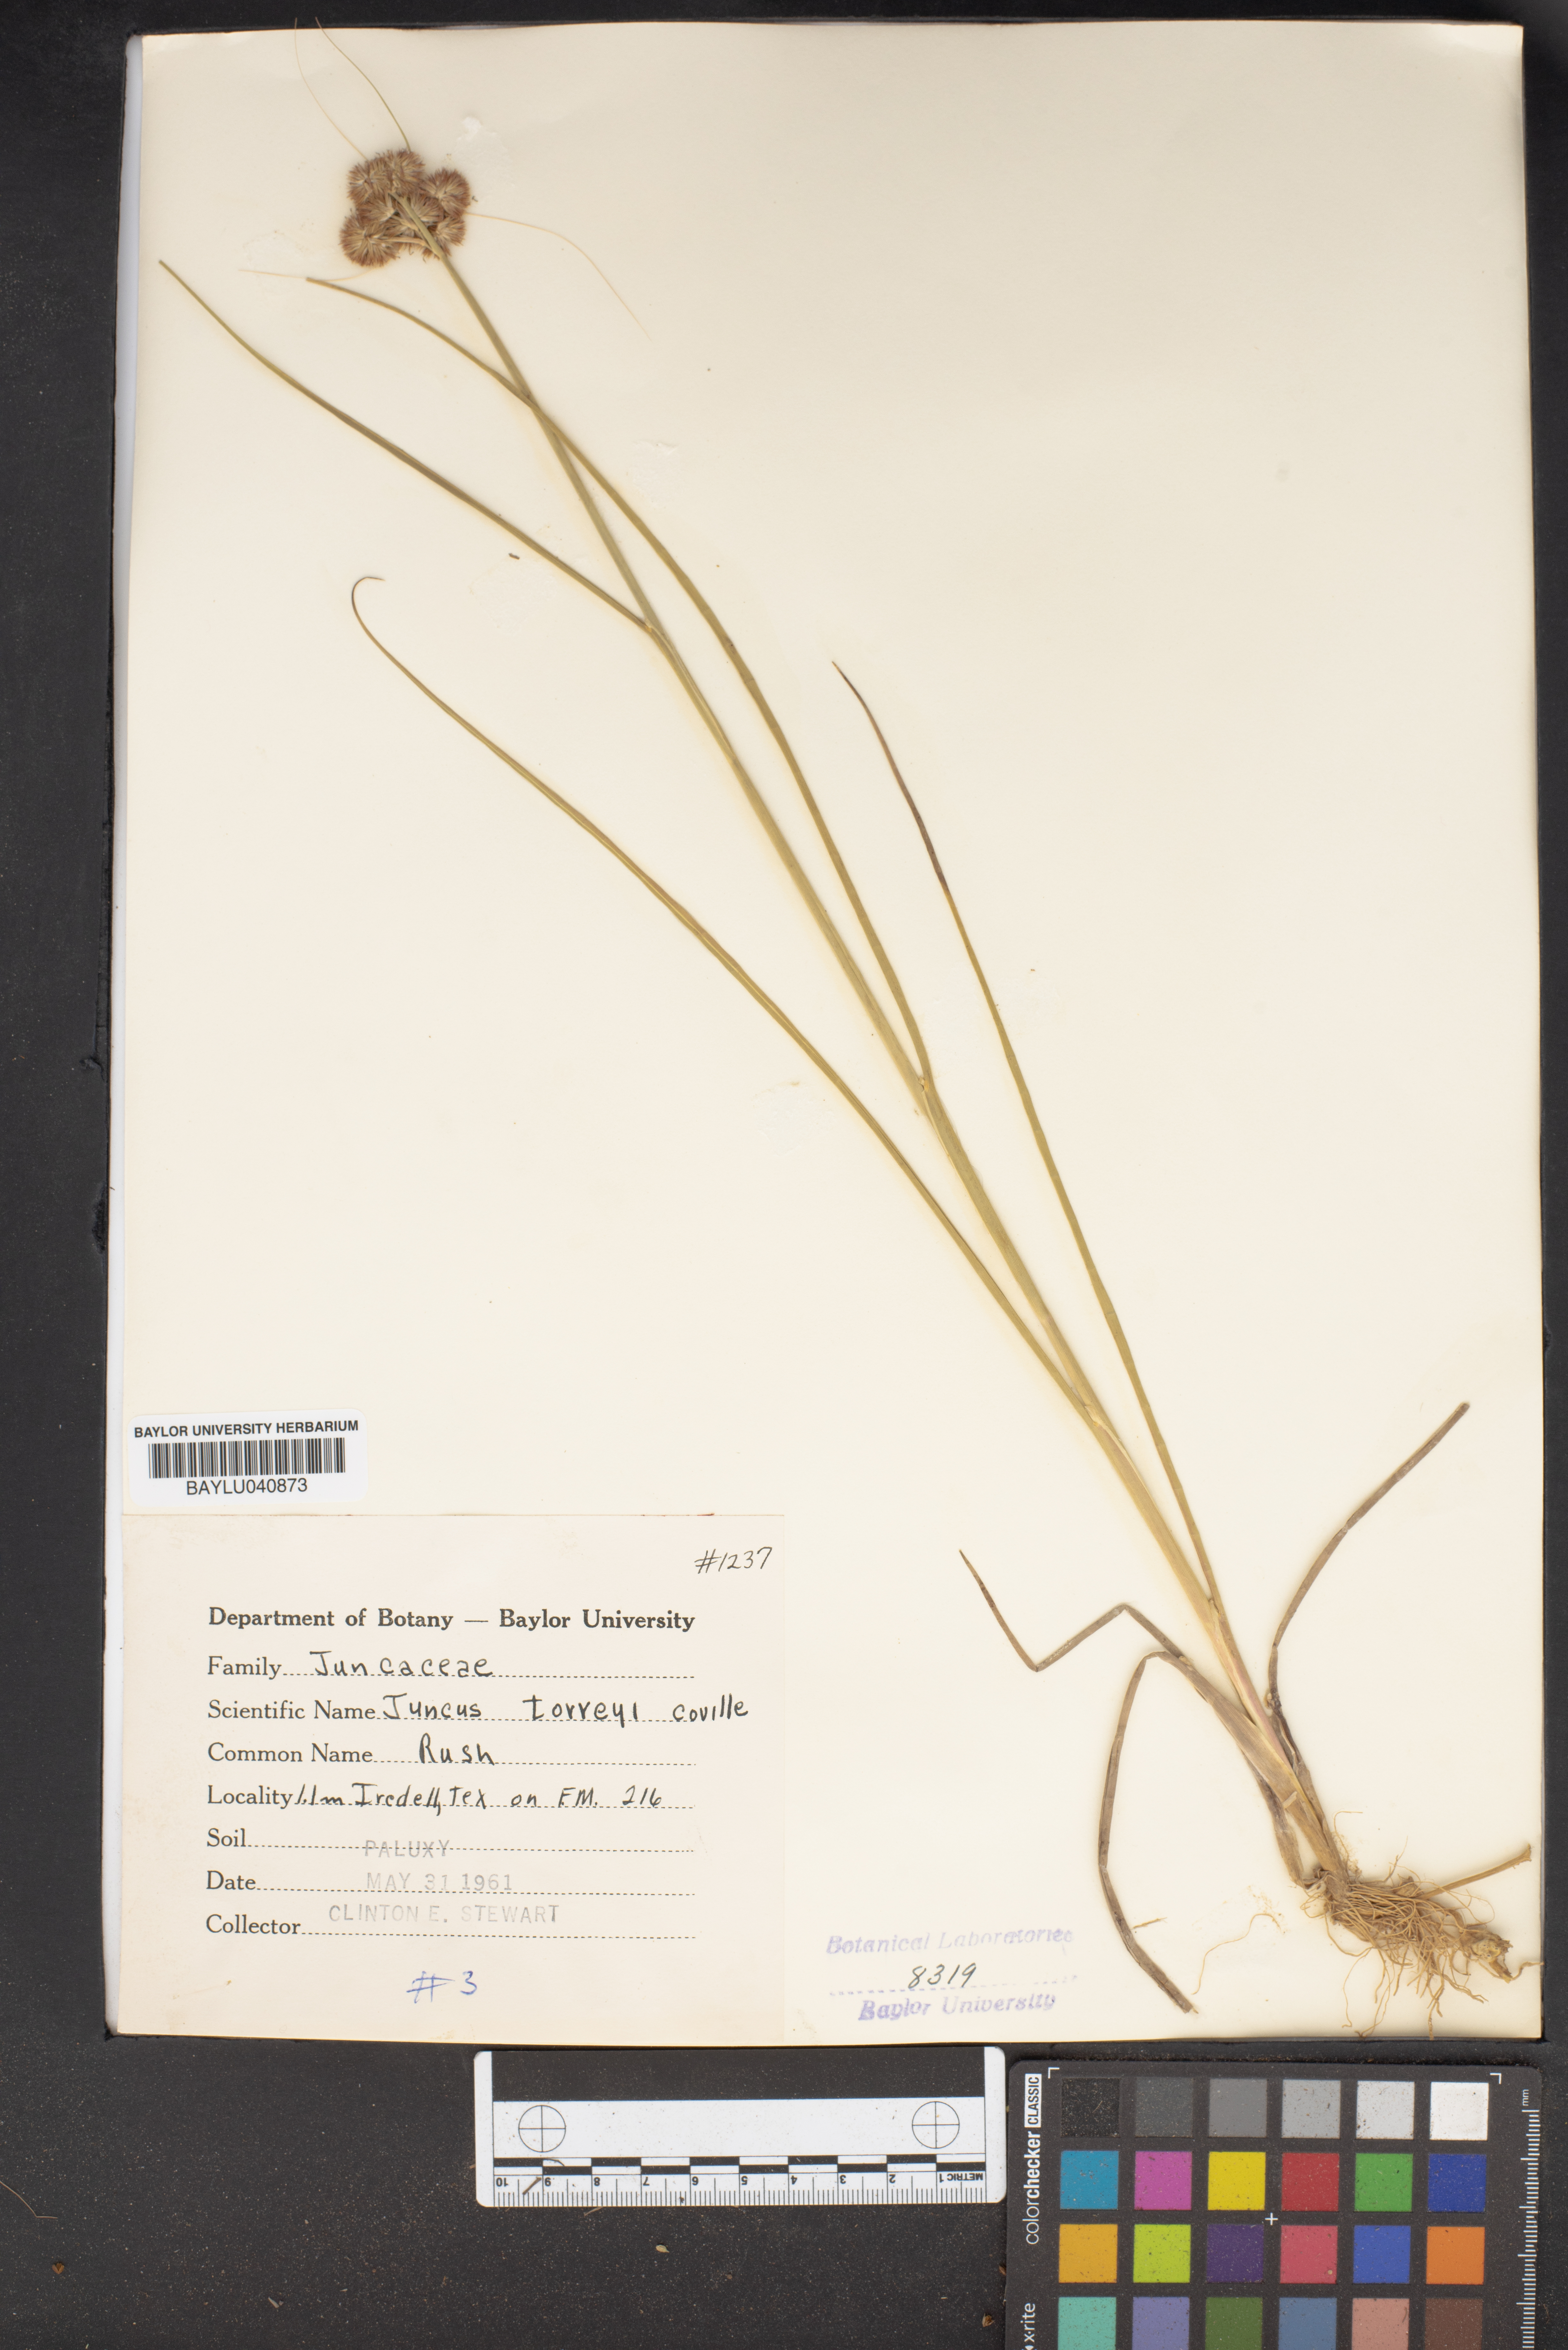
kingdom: Plantae
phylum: Tracheophyta
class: Liliopsida
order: Poales
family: Juncaceae
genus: Juncus
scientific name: Juncus torreyi
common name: Torrey's rush
